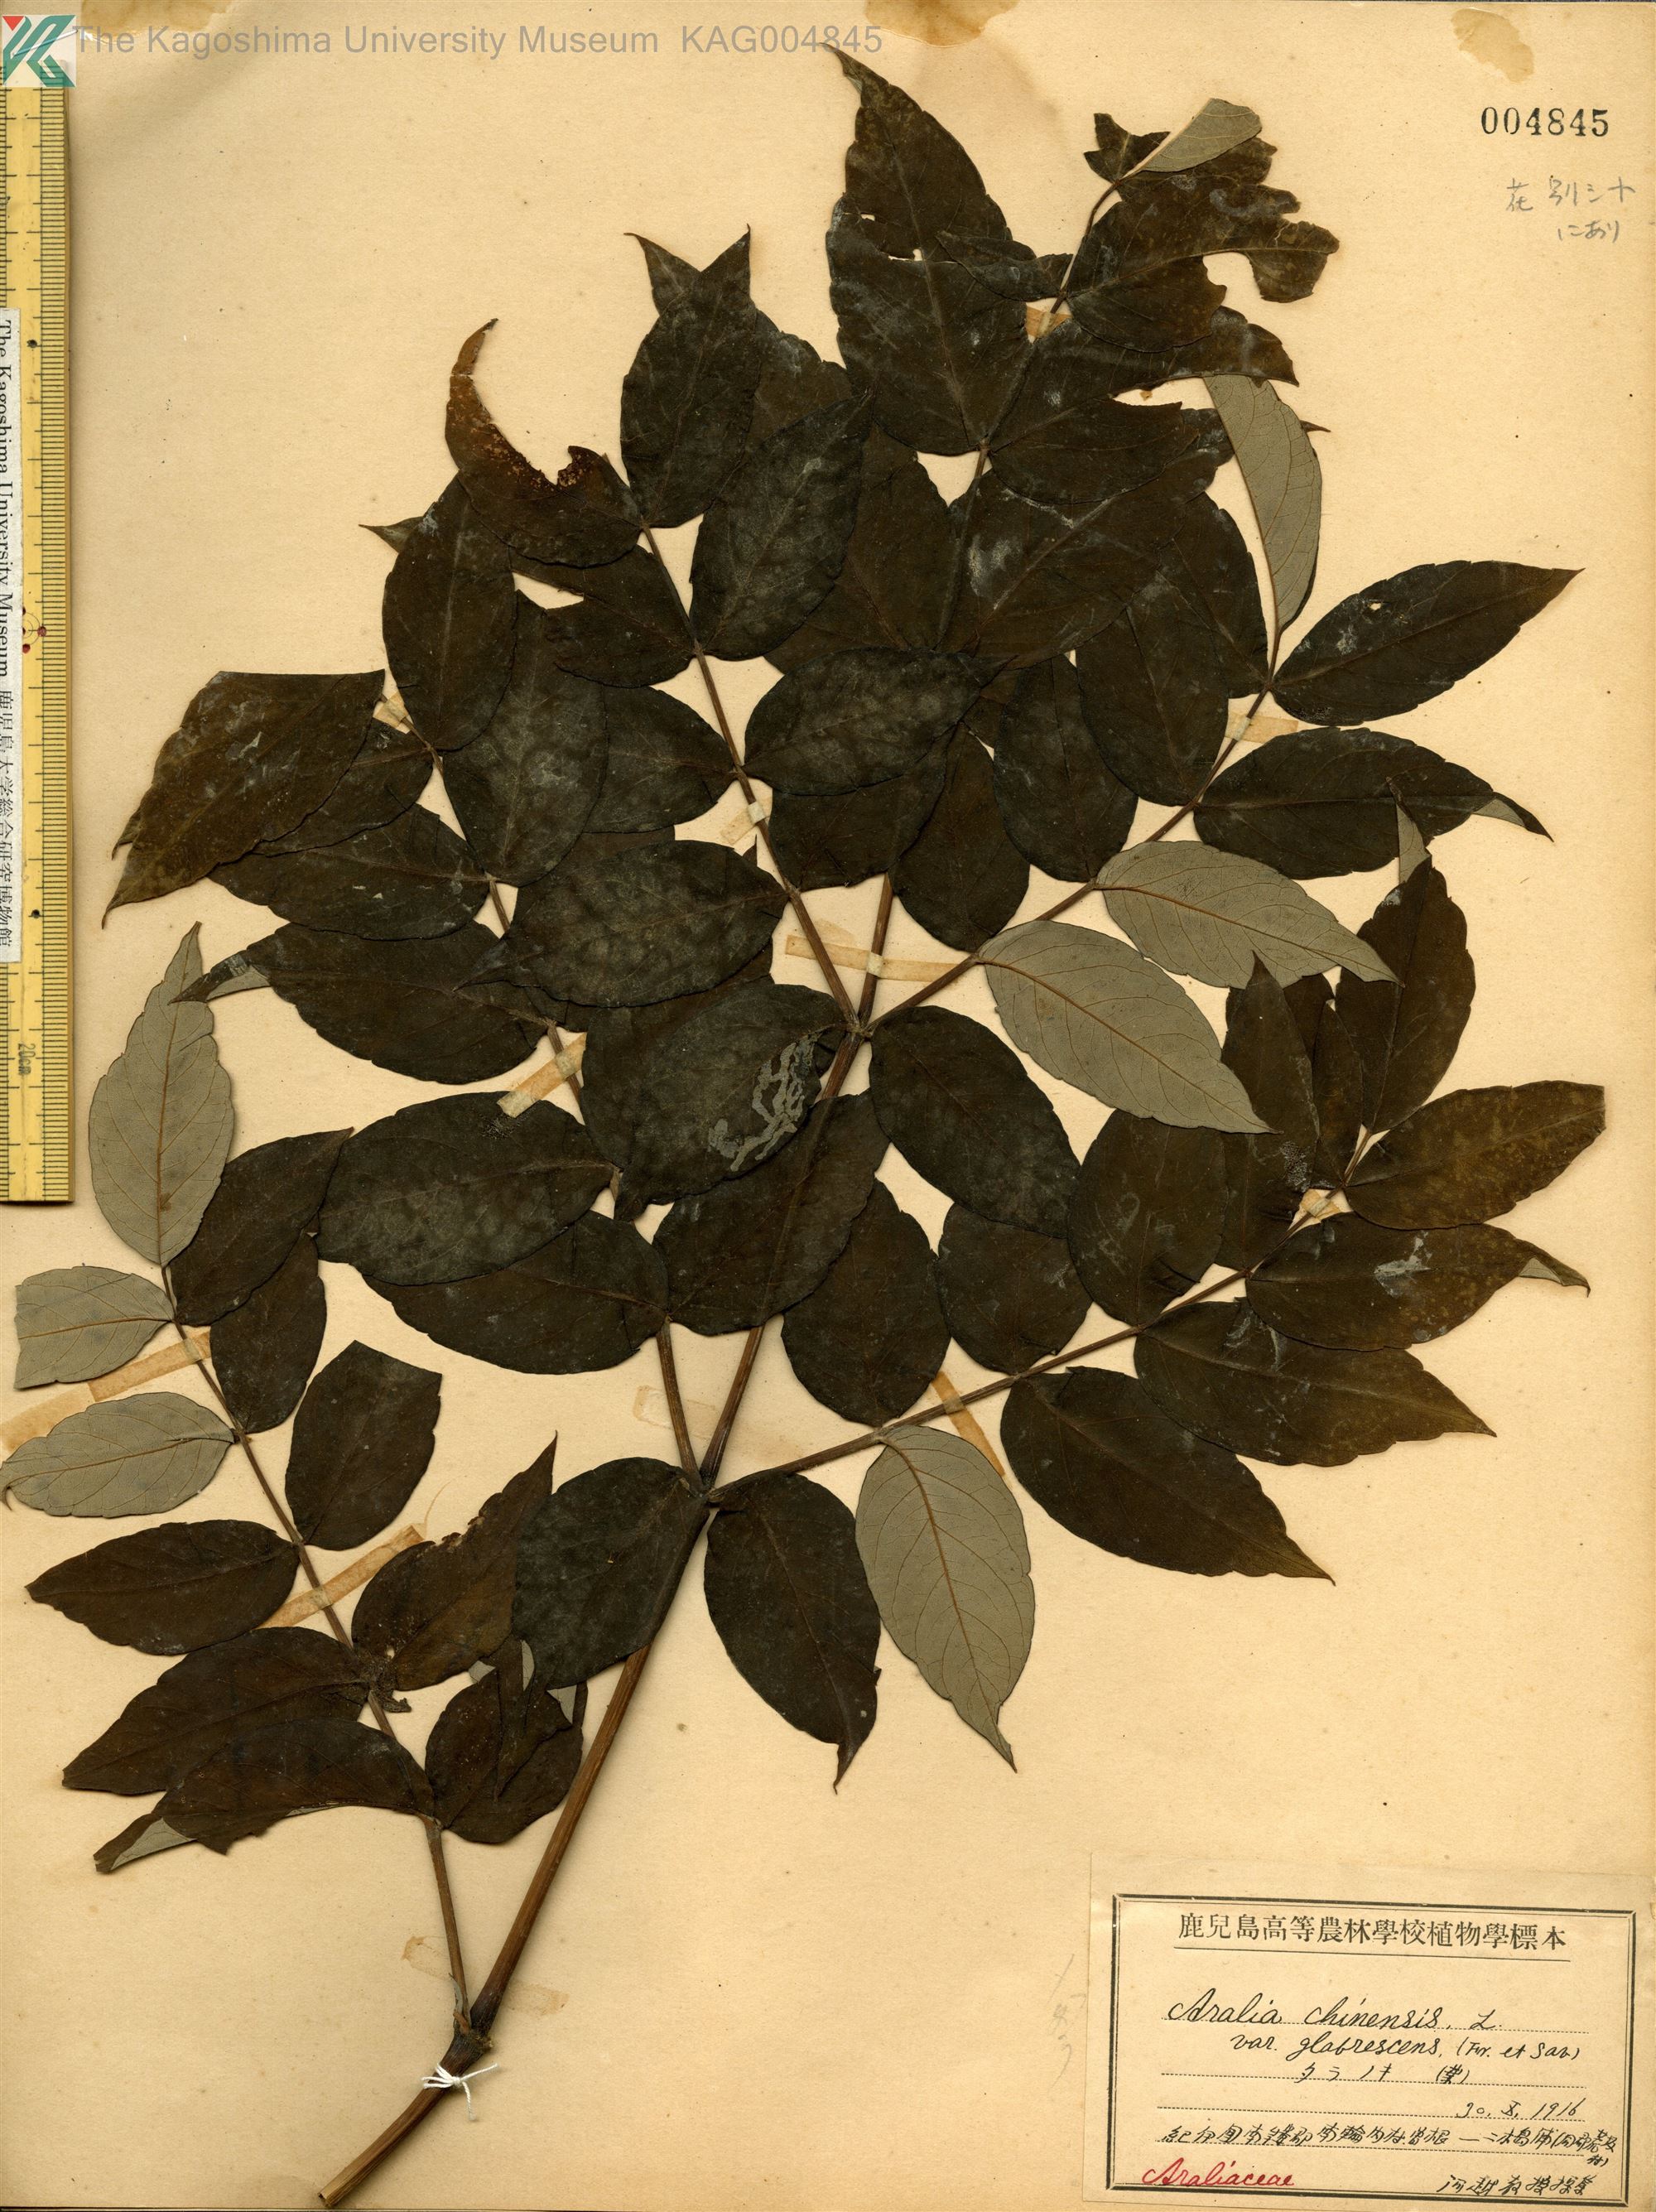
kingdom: Plantae
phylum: Tracheophyta
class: Magnoliopsida
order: Apiales
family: Araliaceae
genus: Aralia
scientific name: Aralia elata
